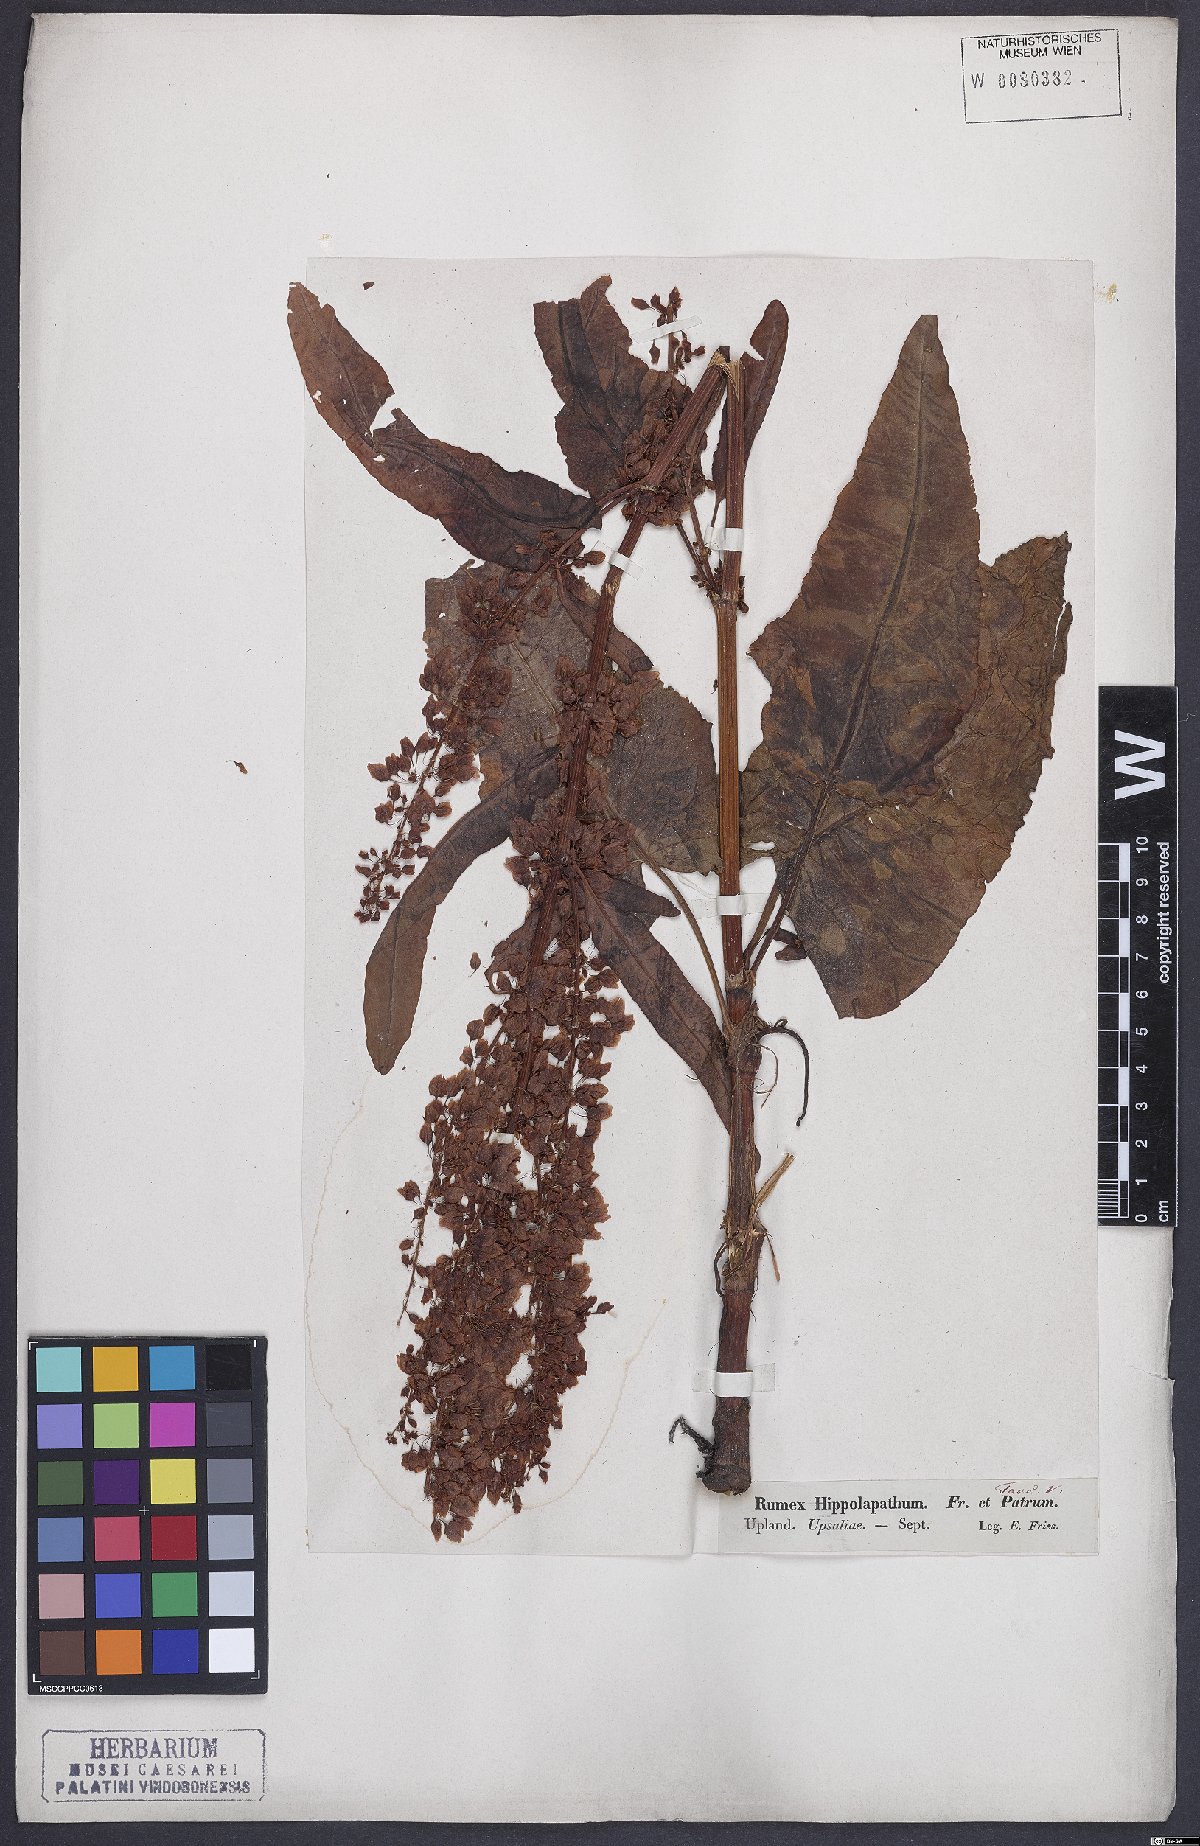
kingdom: Plantae
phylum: Tracheophyta
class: Magnoliopsida
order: Caryophyllales
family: Polygonaceae
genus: Rumex
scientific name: Rumex aquaticus
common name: Scottish dock
